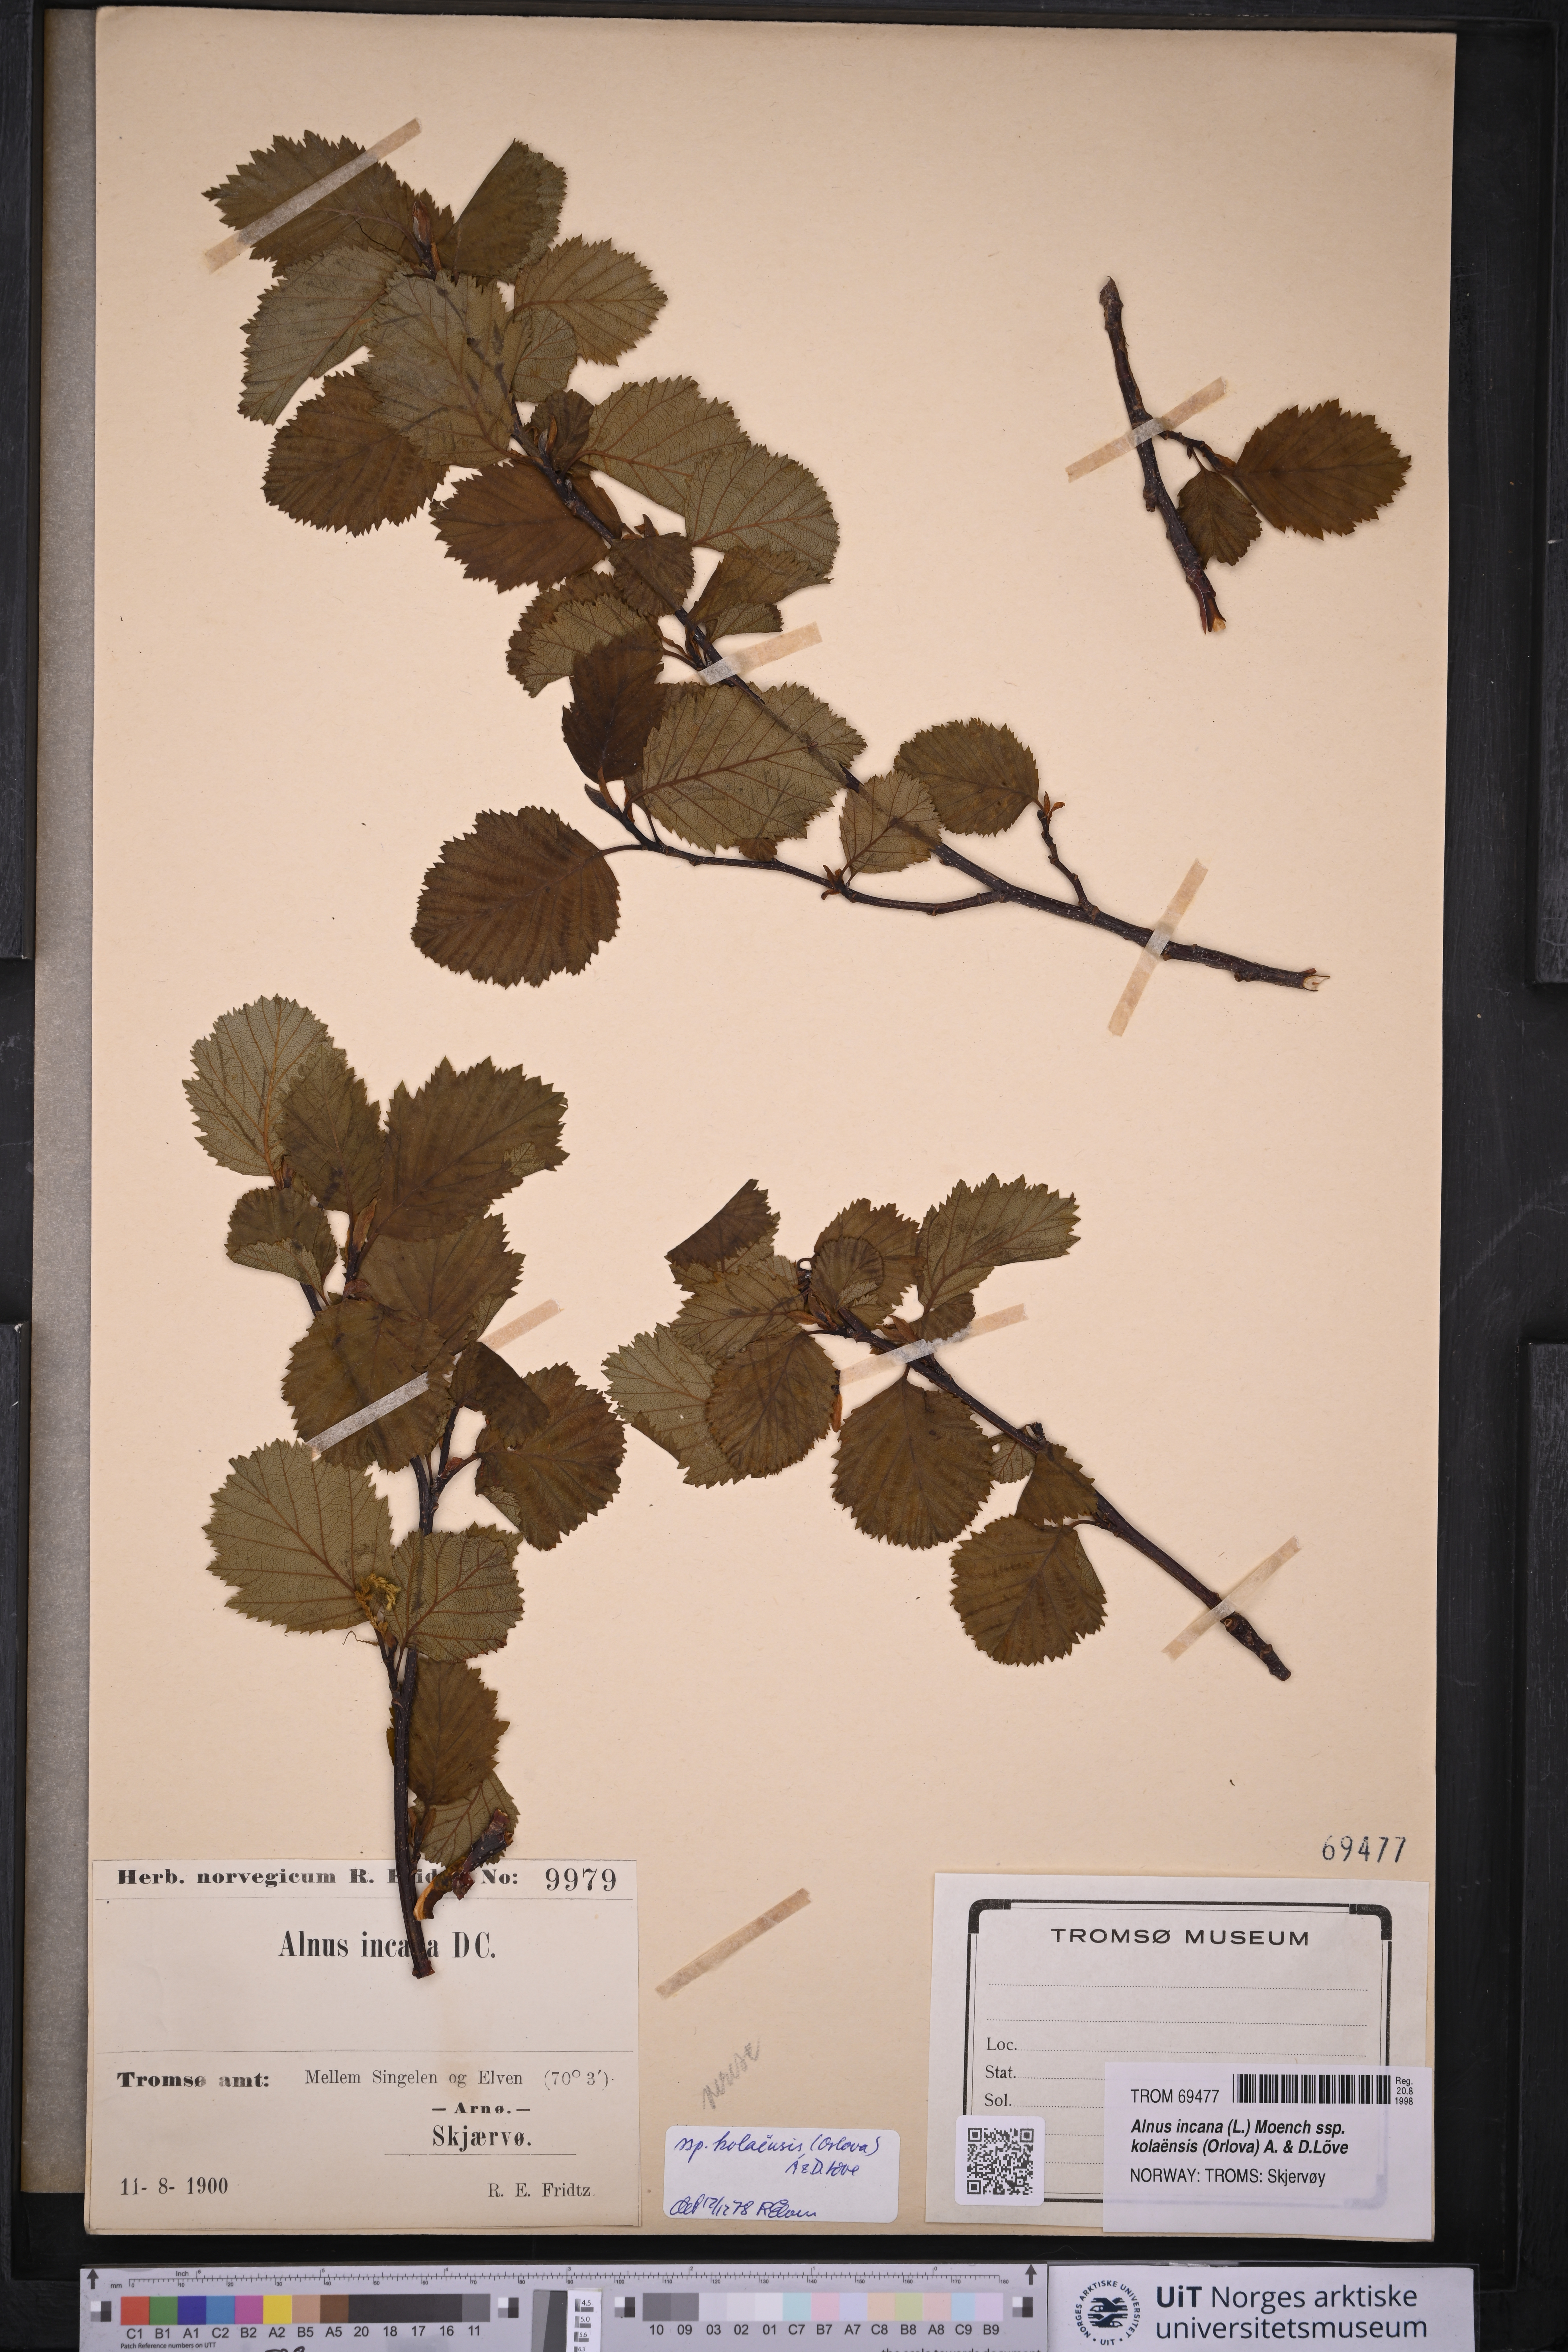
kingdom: Plantae
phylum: Tracheophyta
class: Magnoliopsida
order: Fagales
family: Betulaceae
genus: Alnus
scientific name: Alnus incana
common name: Grey alder
